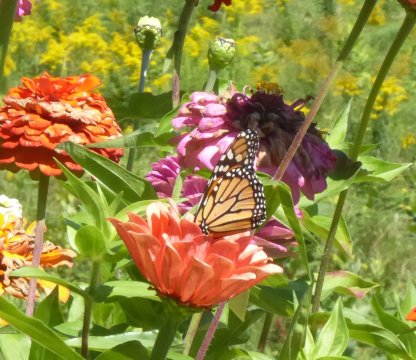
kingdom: Animalia
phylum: Arthropoda
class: Insecta
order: Lepidoptera
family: Nymphalidae
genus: Danaus
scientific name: Danaus plexippus
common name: Monarch
